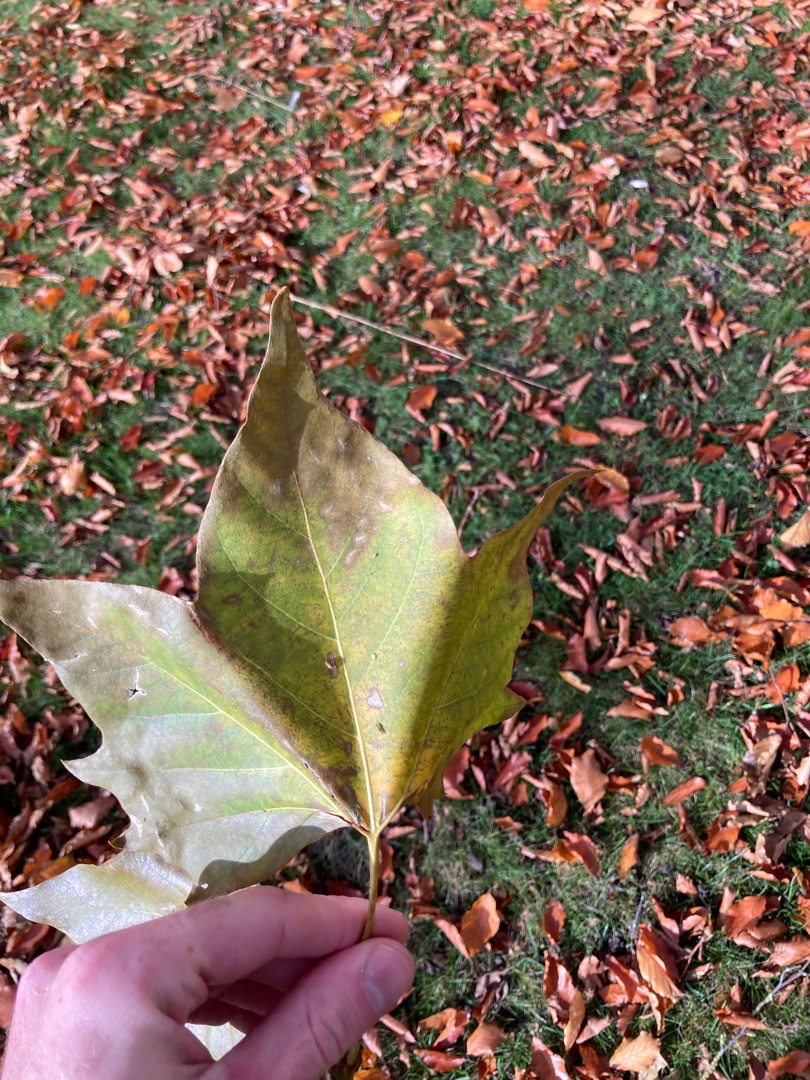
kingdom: Plantae
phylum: Tracheophyta
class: Magnoliopsida
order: Proteales
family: Platanaceae
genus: Platanus
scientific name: Platanus hispanica
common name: Almindelig platan
